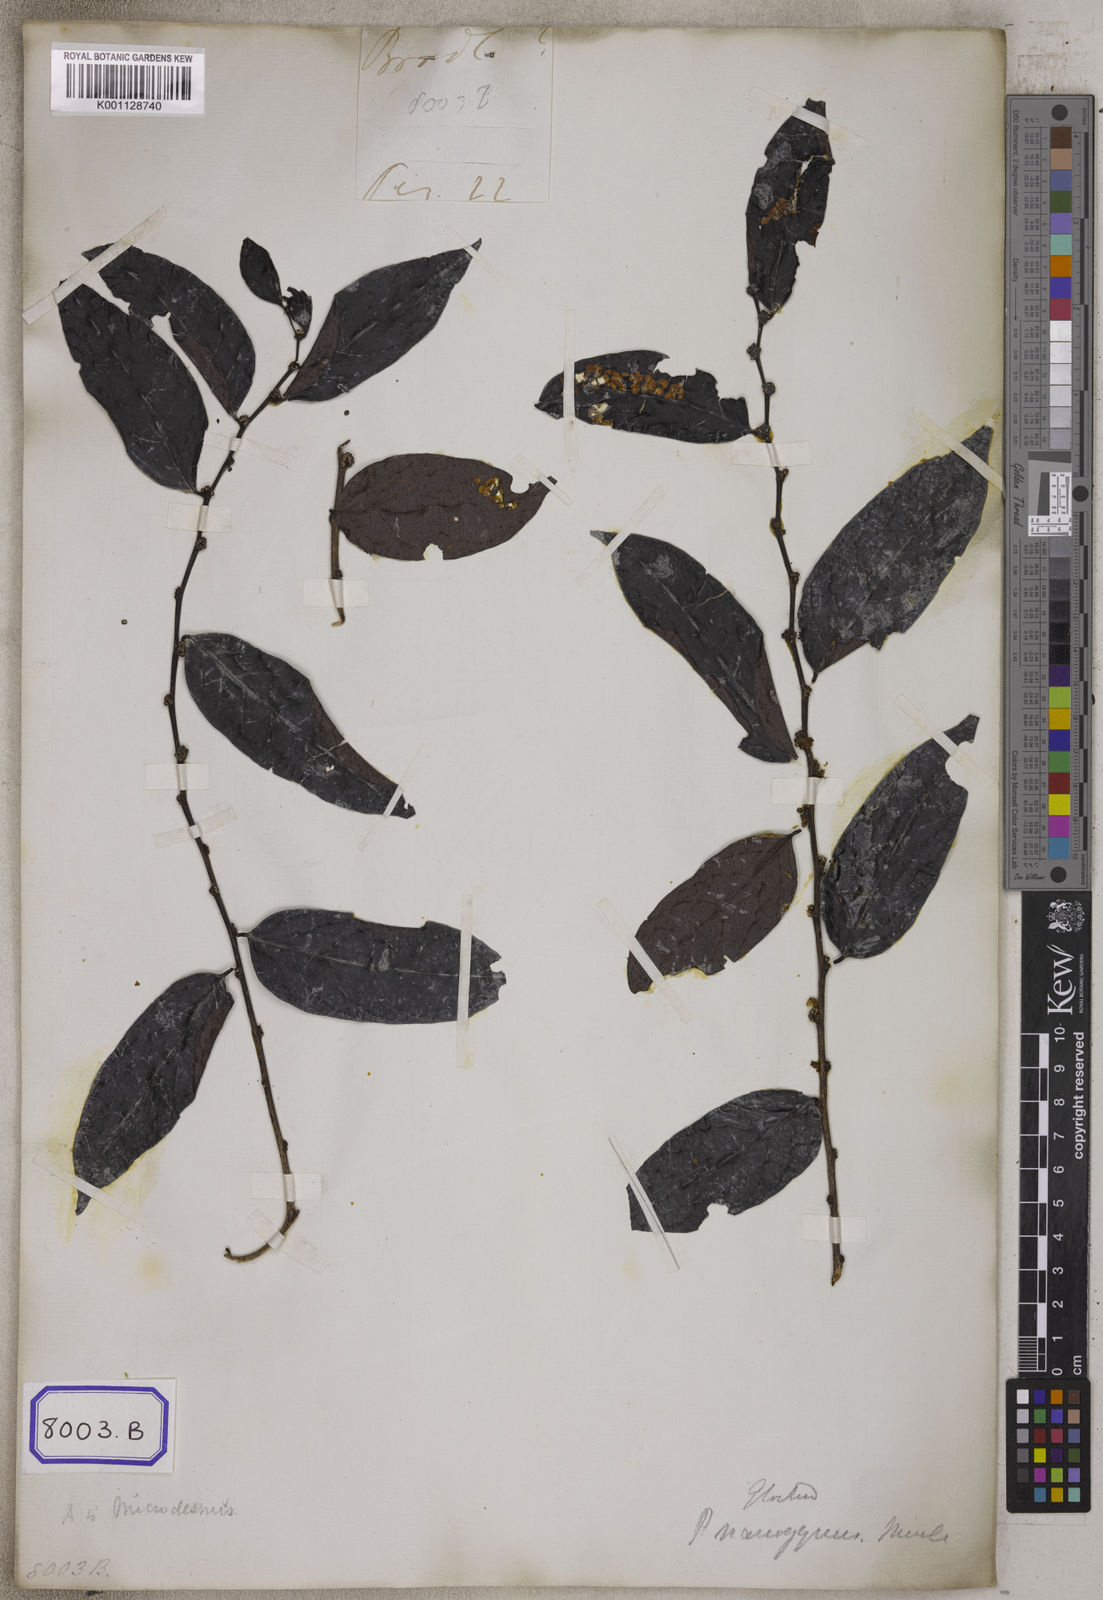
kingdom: Plantae
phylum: Tracheophyta
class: Magnoliopsida
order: Malpighiales
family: Euphorbiaceae
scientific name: Euphorbiaceae
